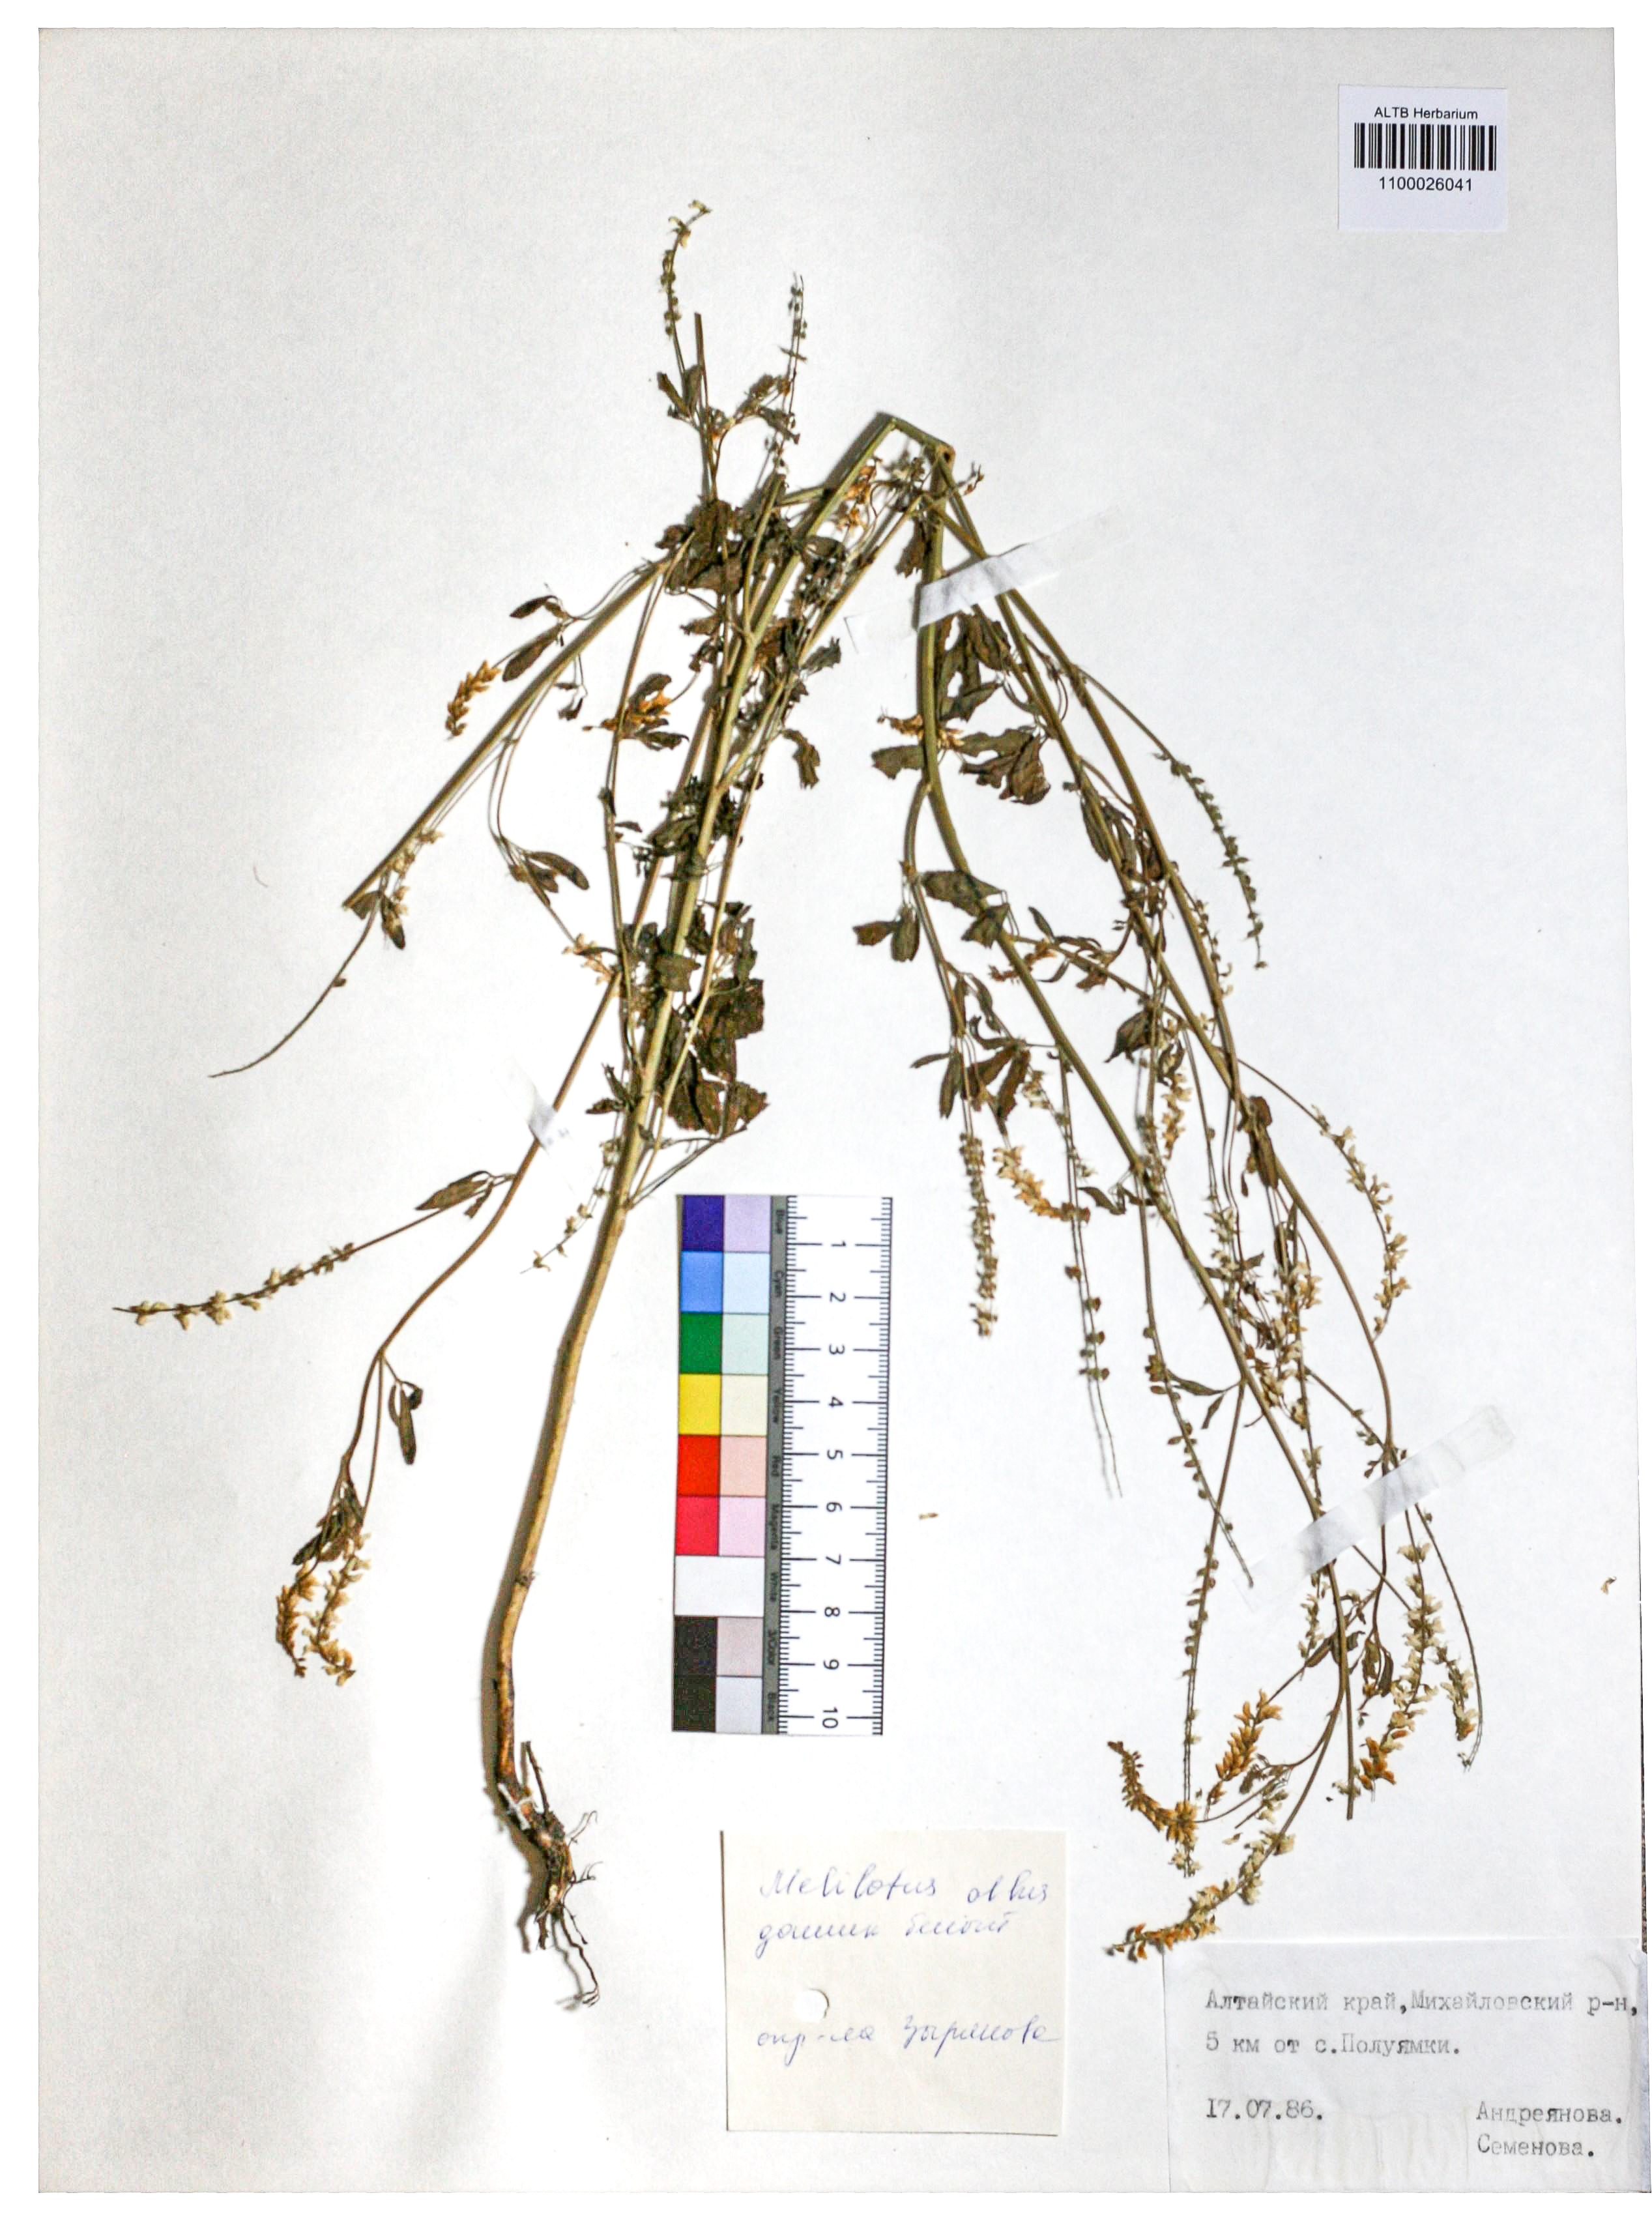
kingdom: Plantae
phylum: Tracheophyta
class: Magnoliopsida
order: Fabales
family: Fabaceae
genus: Melilotus
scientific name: Melilotus albus
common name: White melilot
